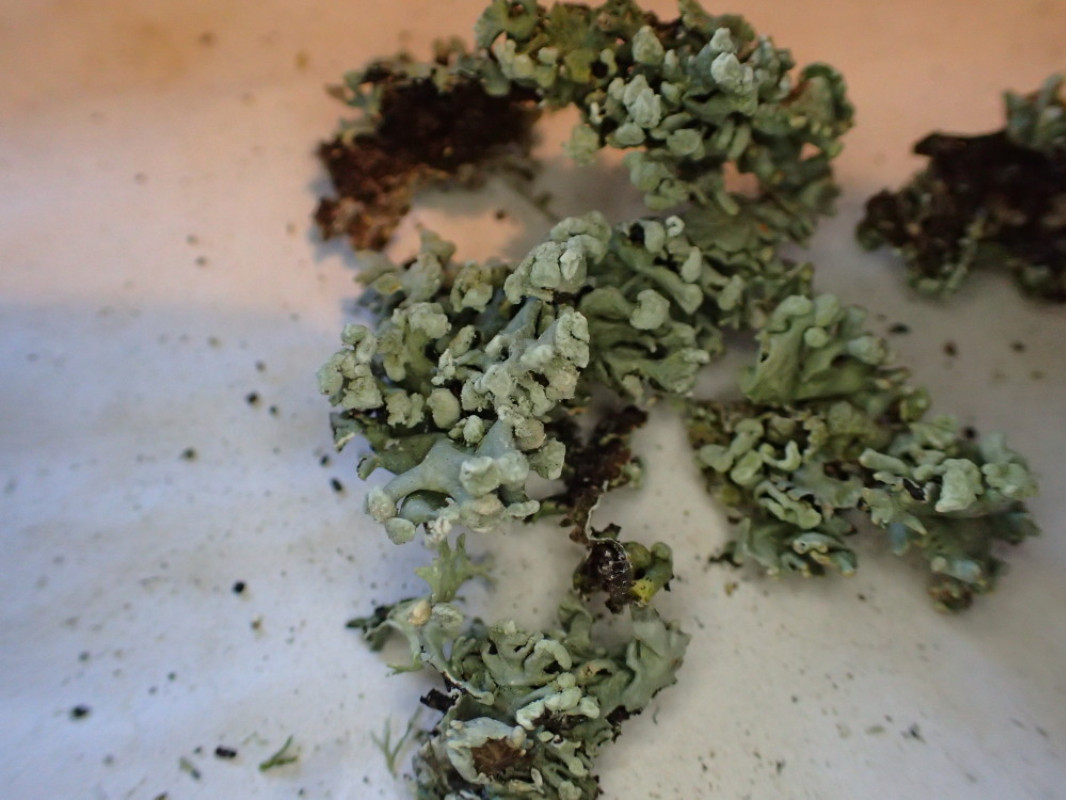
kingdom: Fungi
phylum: Ascomycota
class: Lecanoromycetes
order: Lecanorales
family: Parmeliaceae
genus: Hypogymnia
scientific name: Hypogymnia tubulosa
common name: finger-kvistlav
